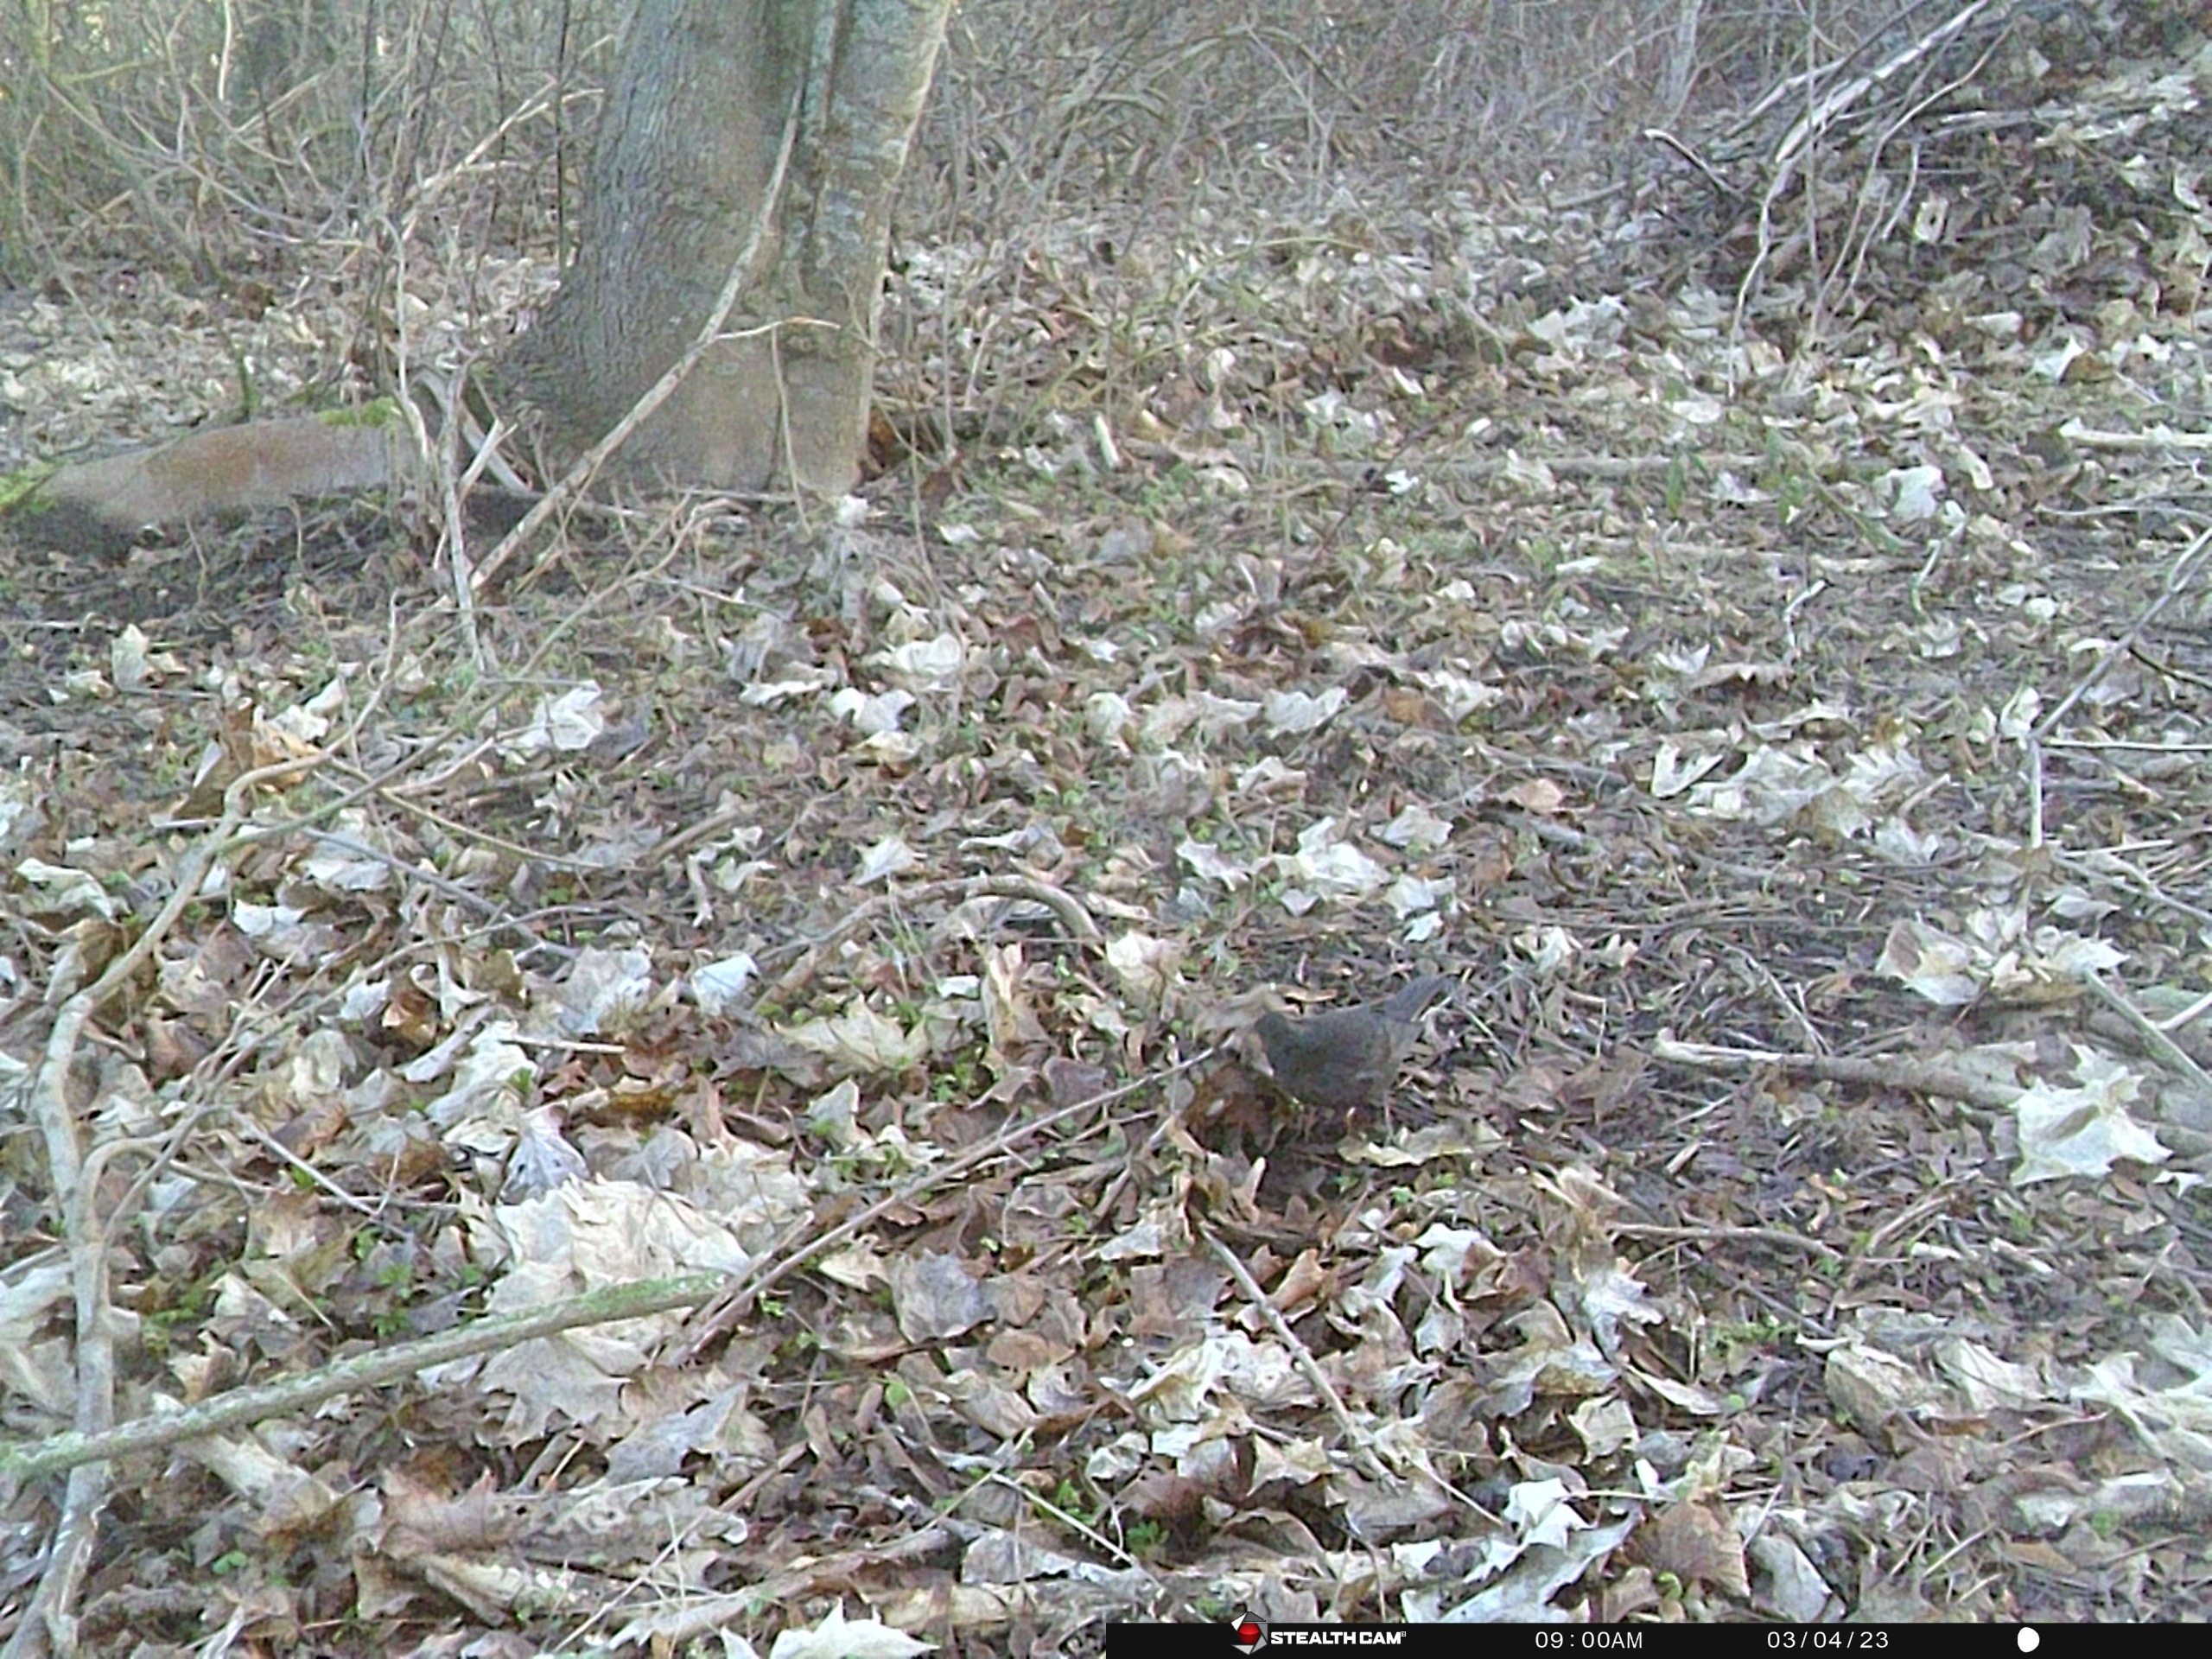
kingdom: Animalia
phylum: Chordata
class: Aves
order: Passeriformes
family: Turdidae
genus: Turdus
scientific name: Turdus merula
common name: Solsort
